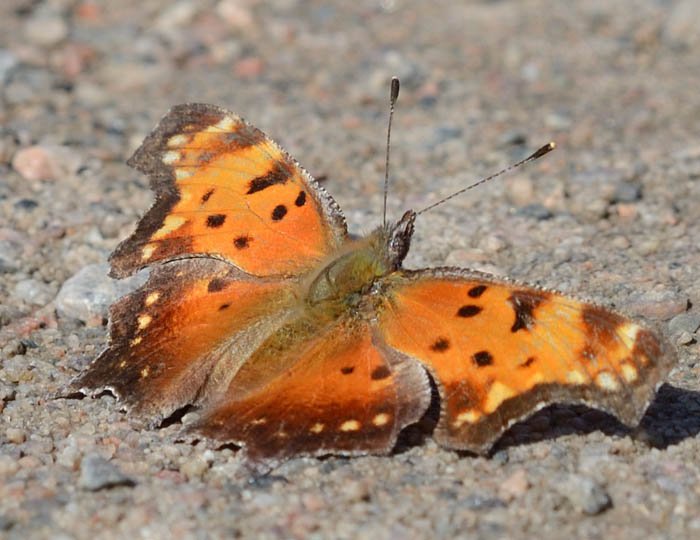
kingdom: Animalia
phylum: Arthropoda
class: Insecta
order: Lepidoptera
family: Nymphalidae
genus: Polygonia
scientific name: Polygonia progne
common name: Gray Comma
